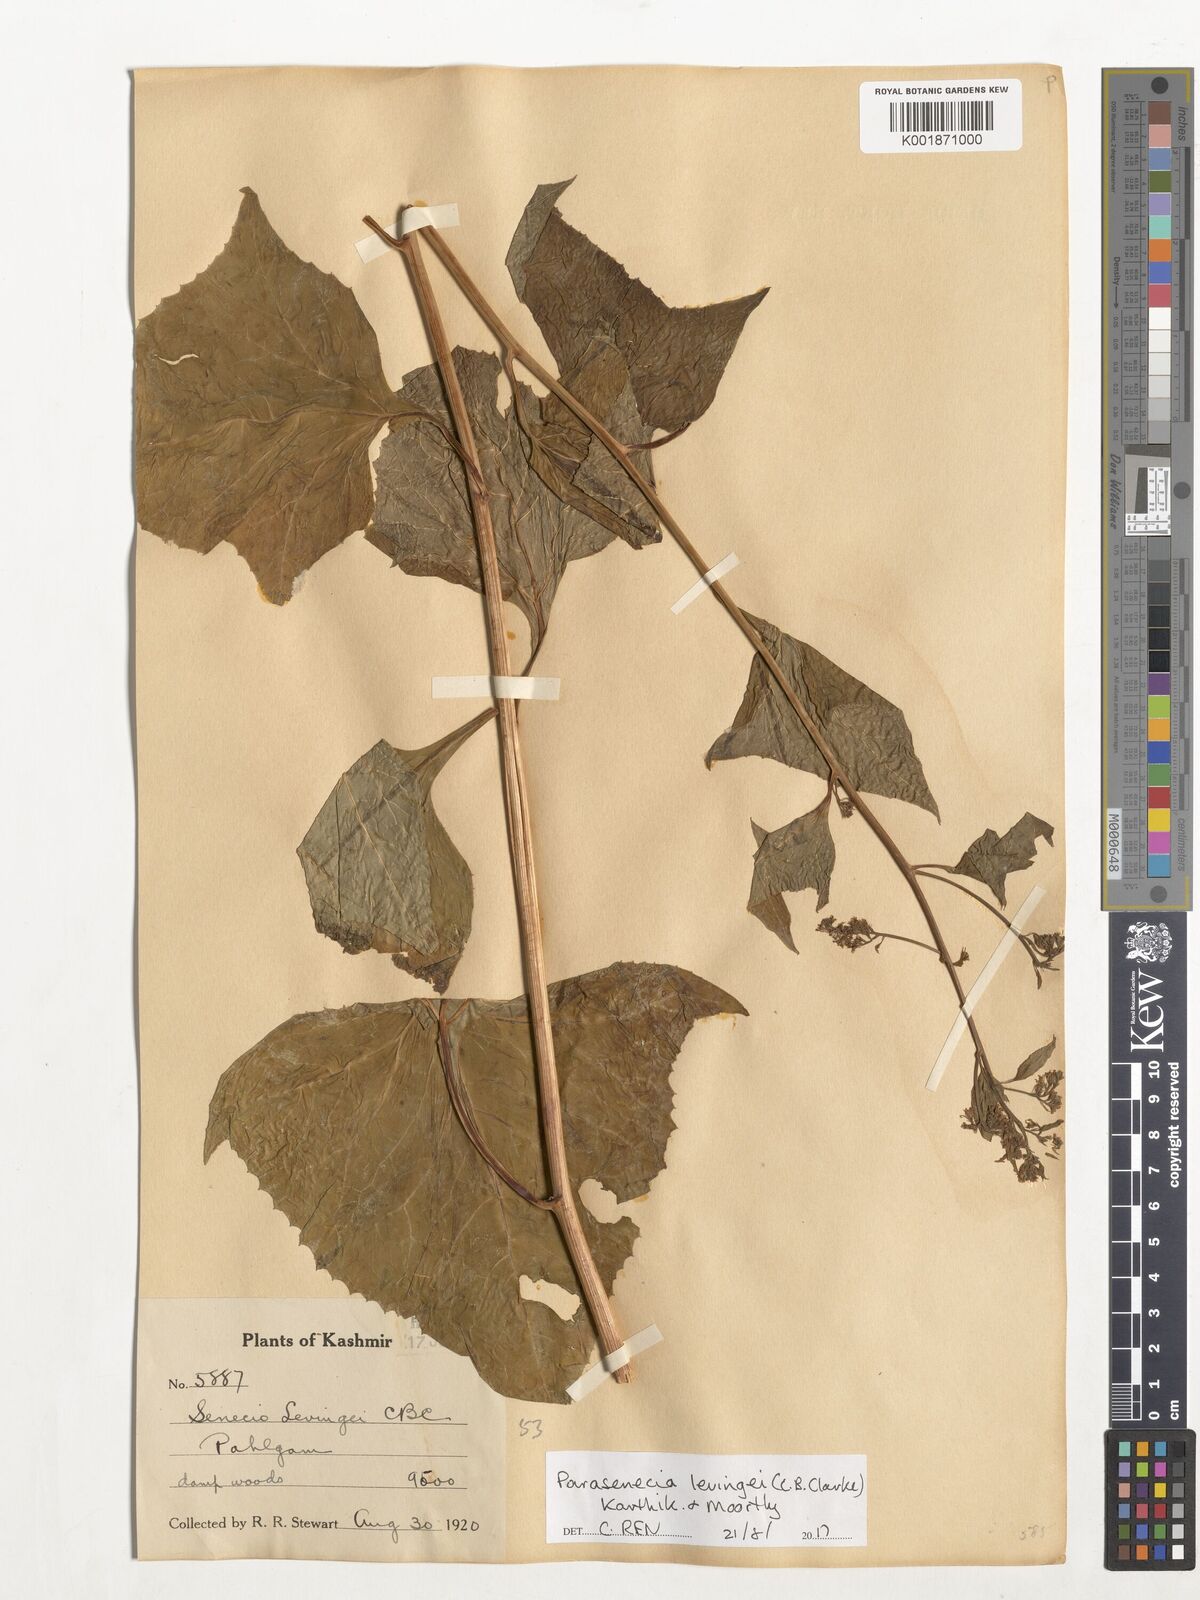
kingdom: Plantae
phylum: Tracheophyta
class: Magnoliopsida
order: Asterales
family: Asteraceae
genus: Parasenecio
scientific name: Parasenecio levingei
